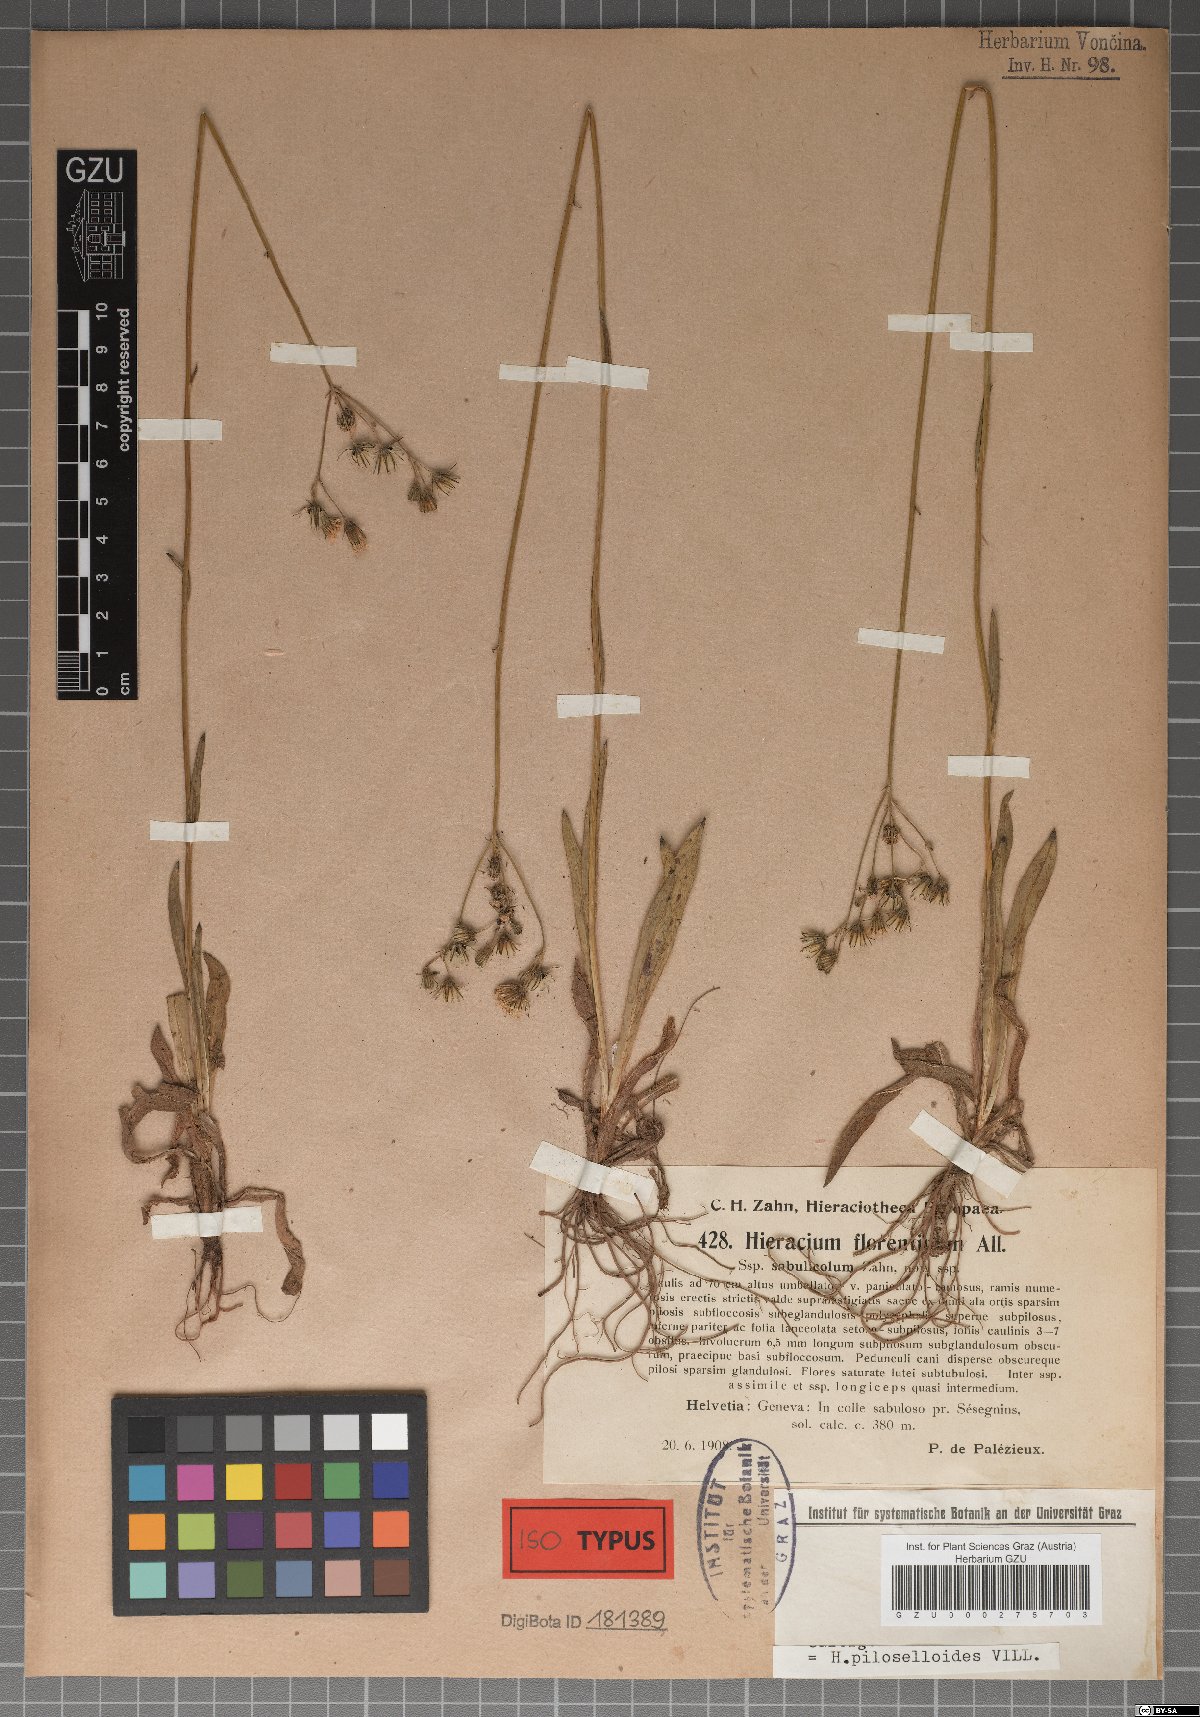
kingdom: Plantae
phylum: Tracheophyta
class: Magnoliopsida
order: Asterales
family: Asteraceae
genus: Hieracium
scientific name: Hieracium florentinum
